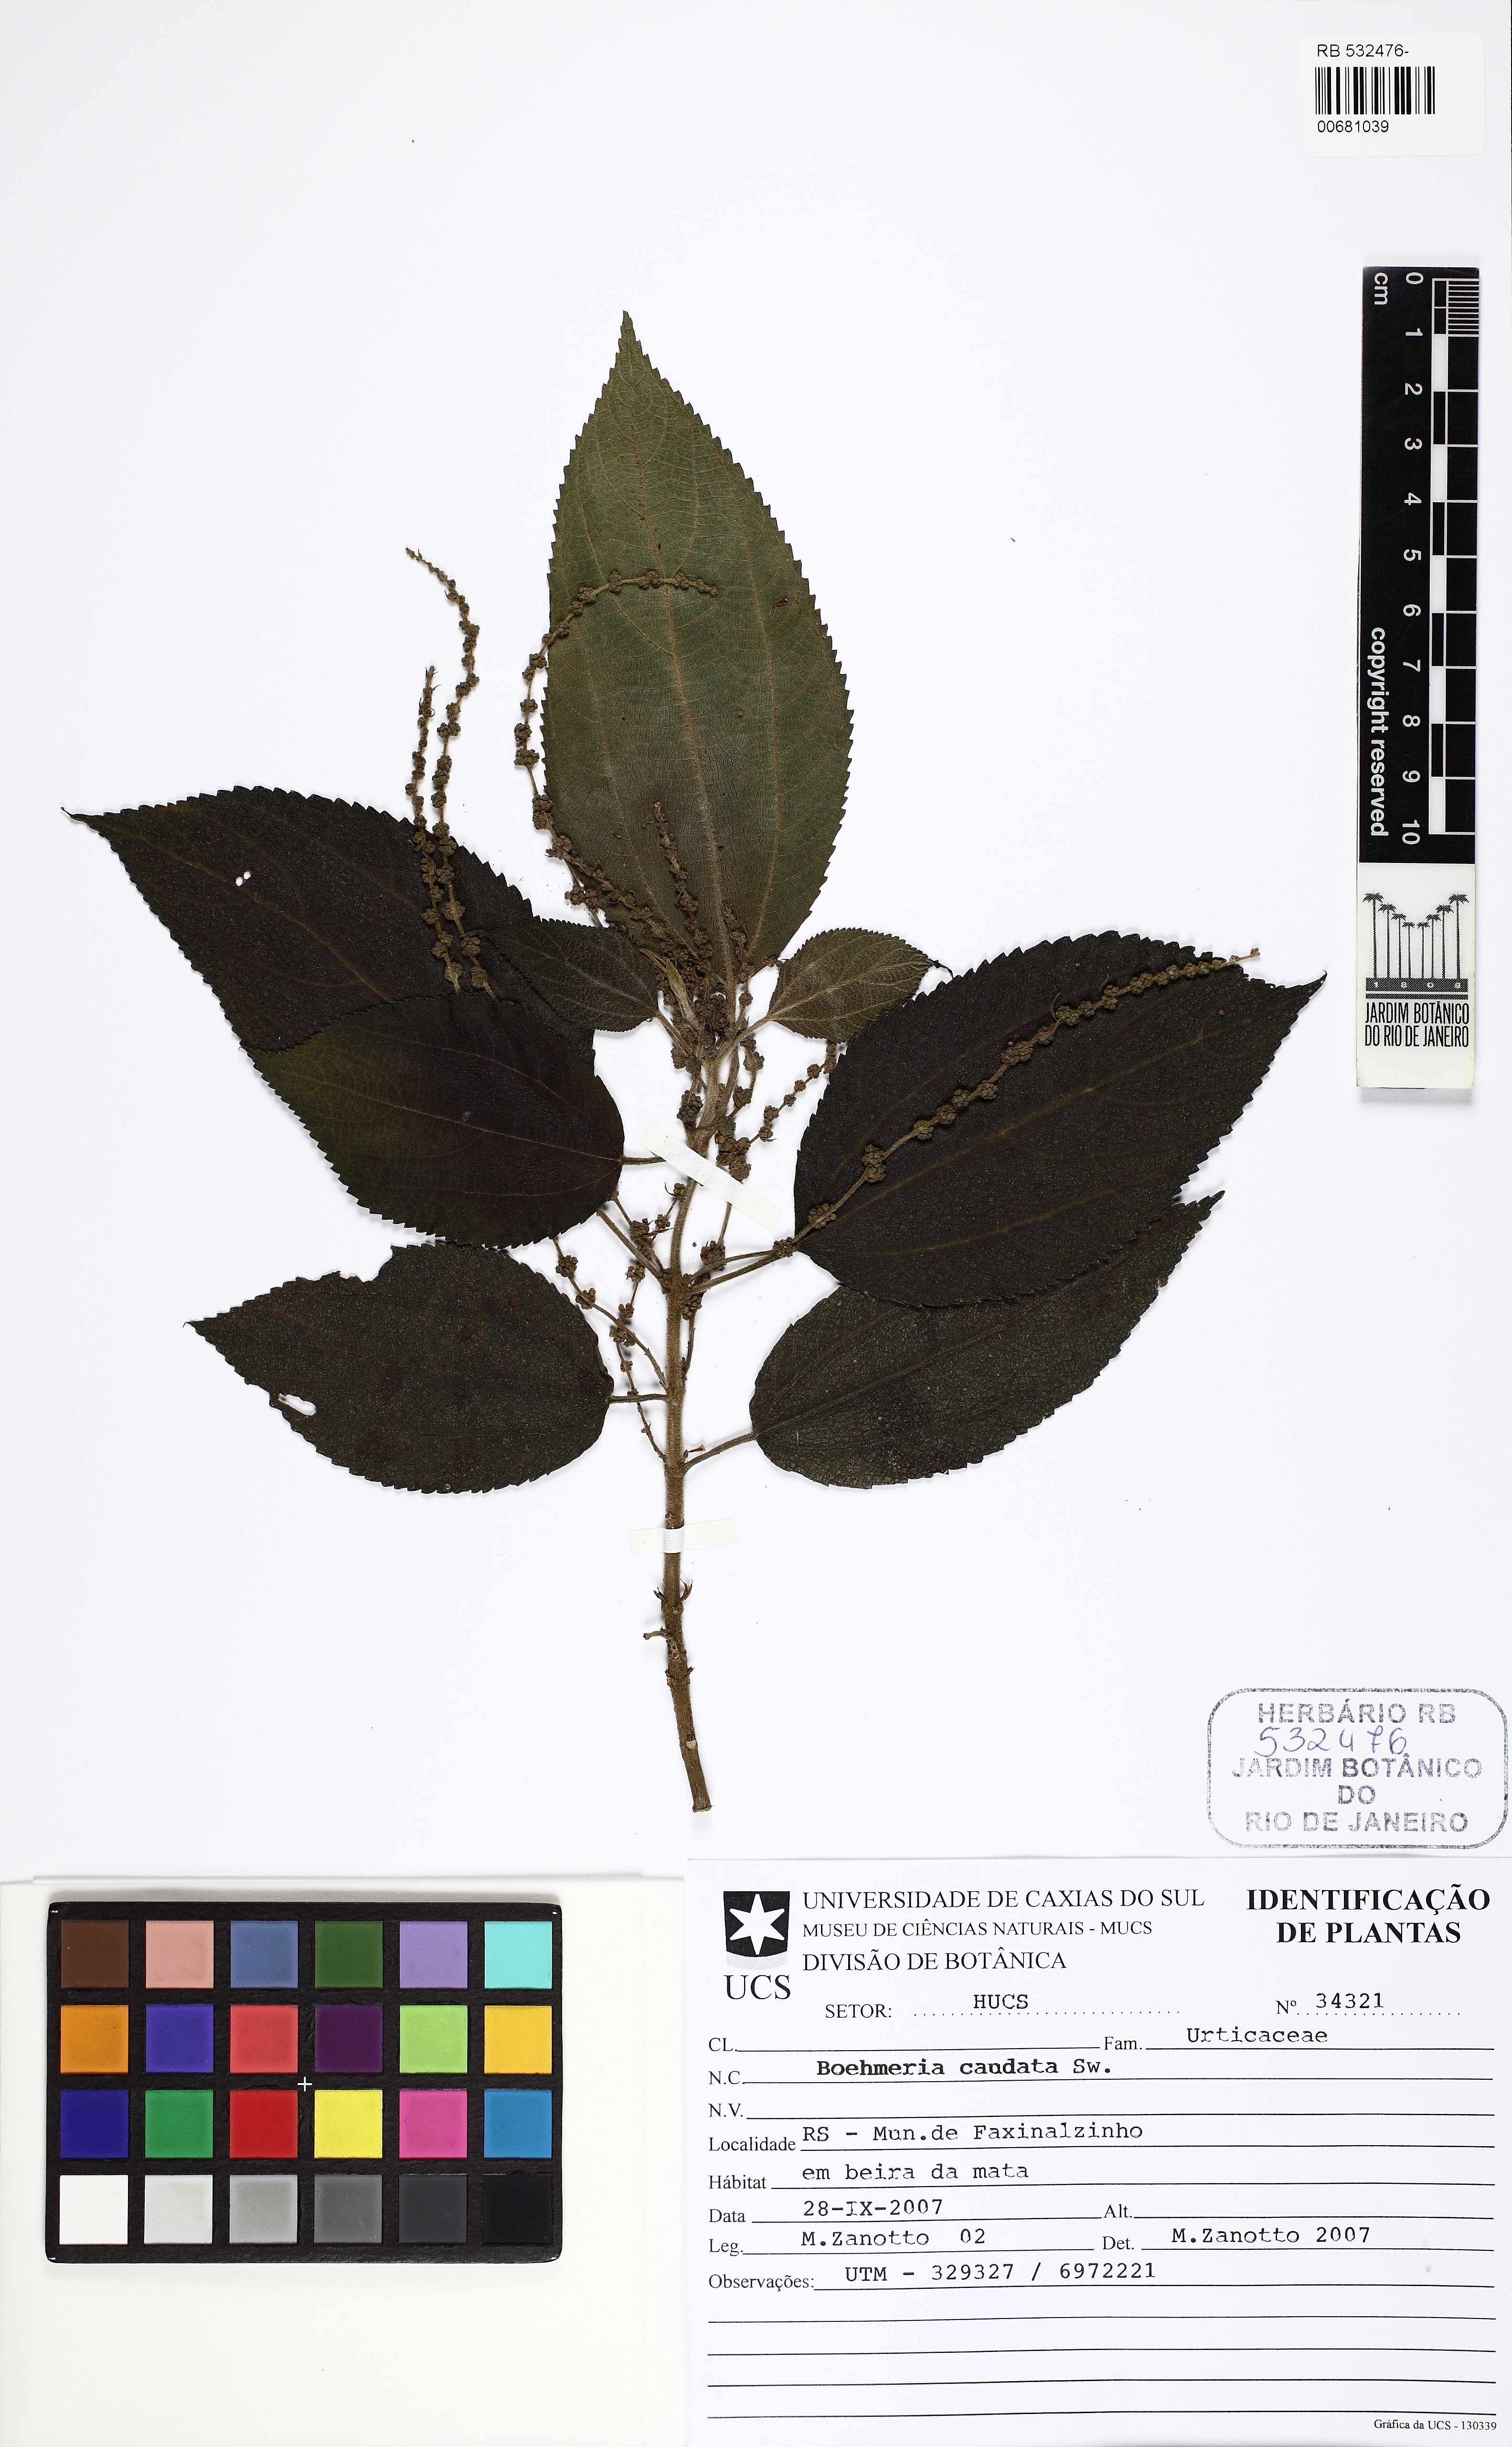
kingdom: Plantae
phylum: Tracheophyta
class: Magnoliopsida
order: Rosales
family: Urticaceae
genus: Boehmeria
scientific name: Boehmeria caudata
